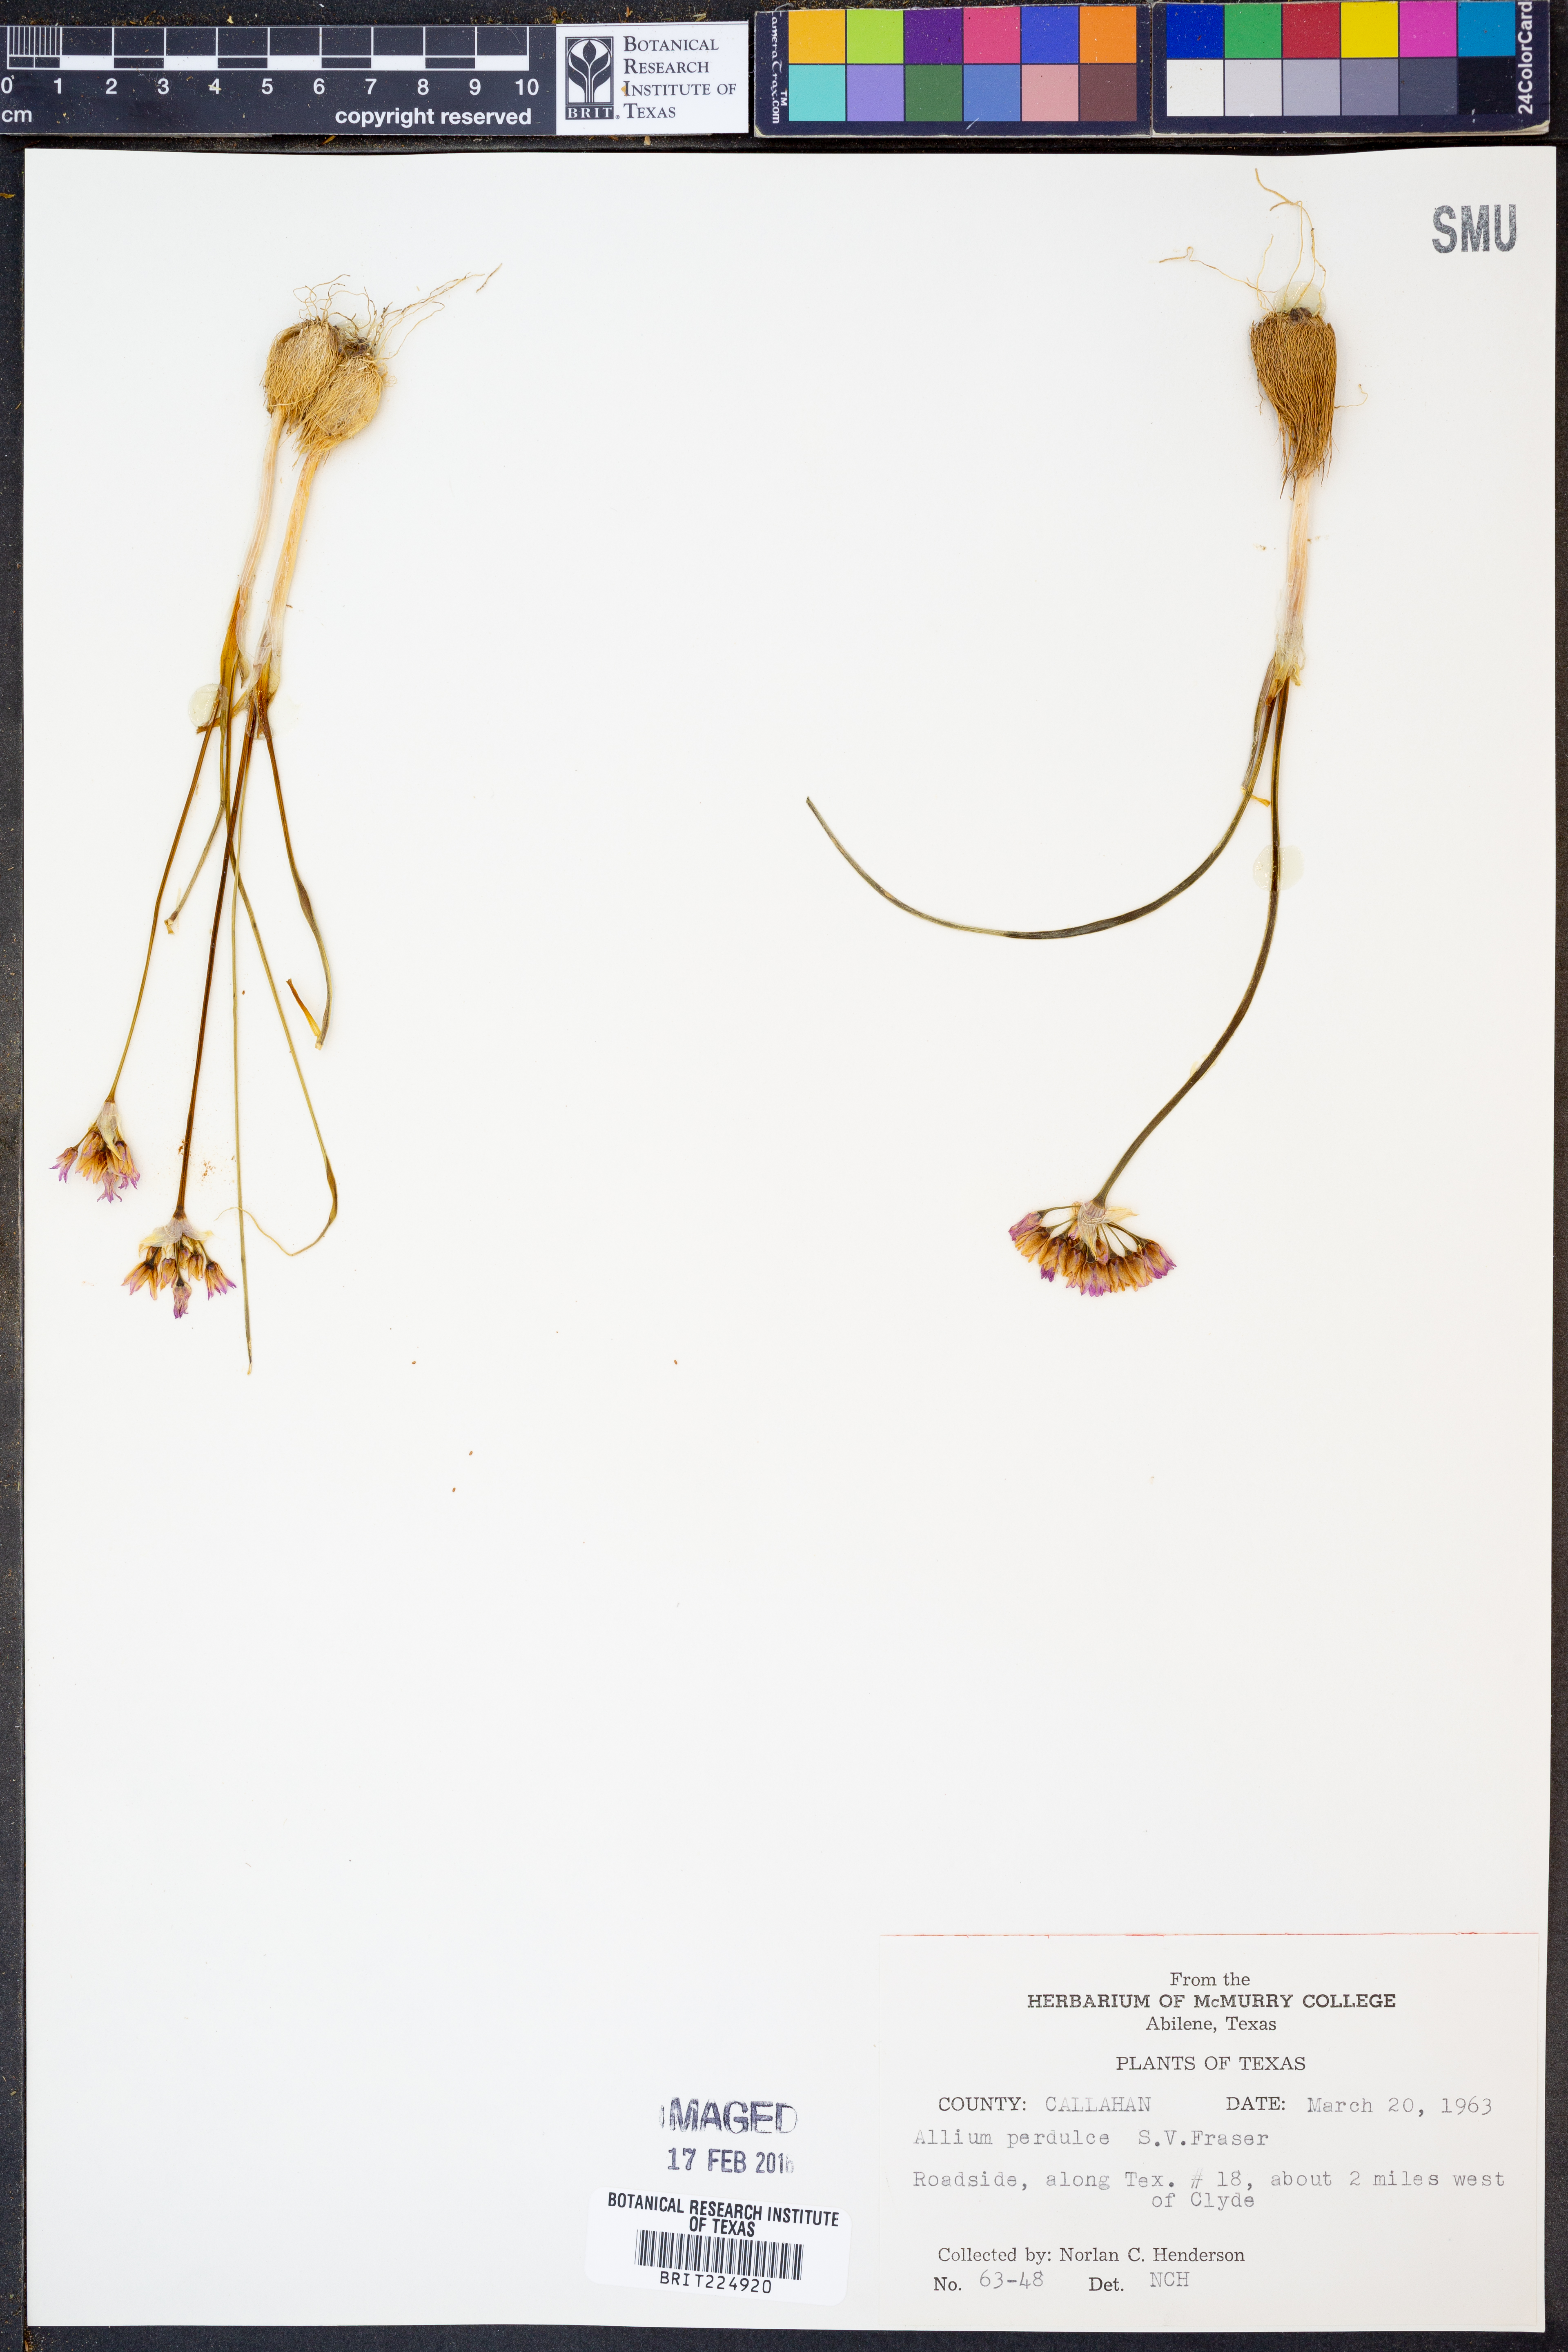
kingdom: Plantae
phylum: Tracheophyta
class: Liliopsida
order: Asparagales
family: Amaryllidaceae
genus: Allium
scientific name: Allium perdulce
